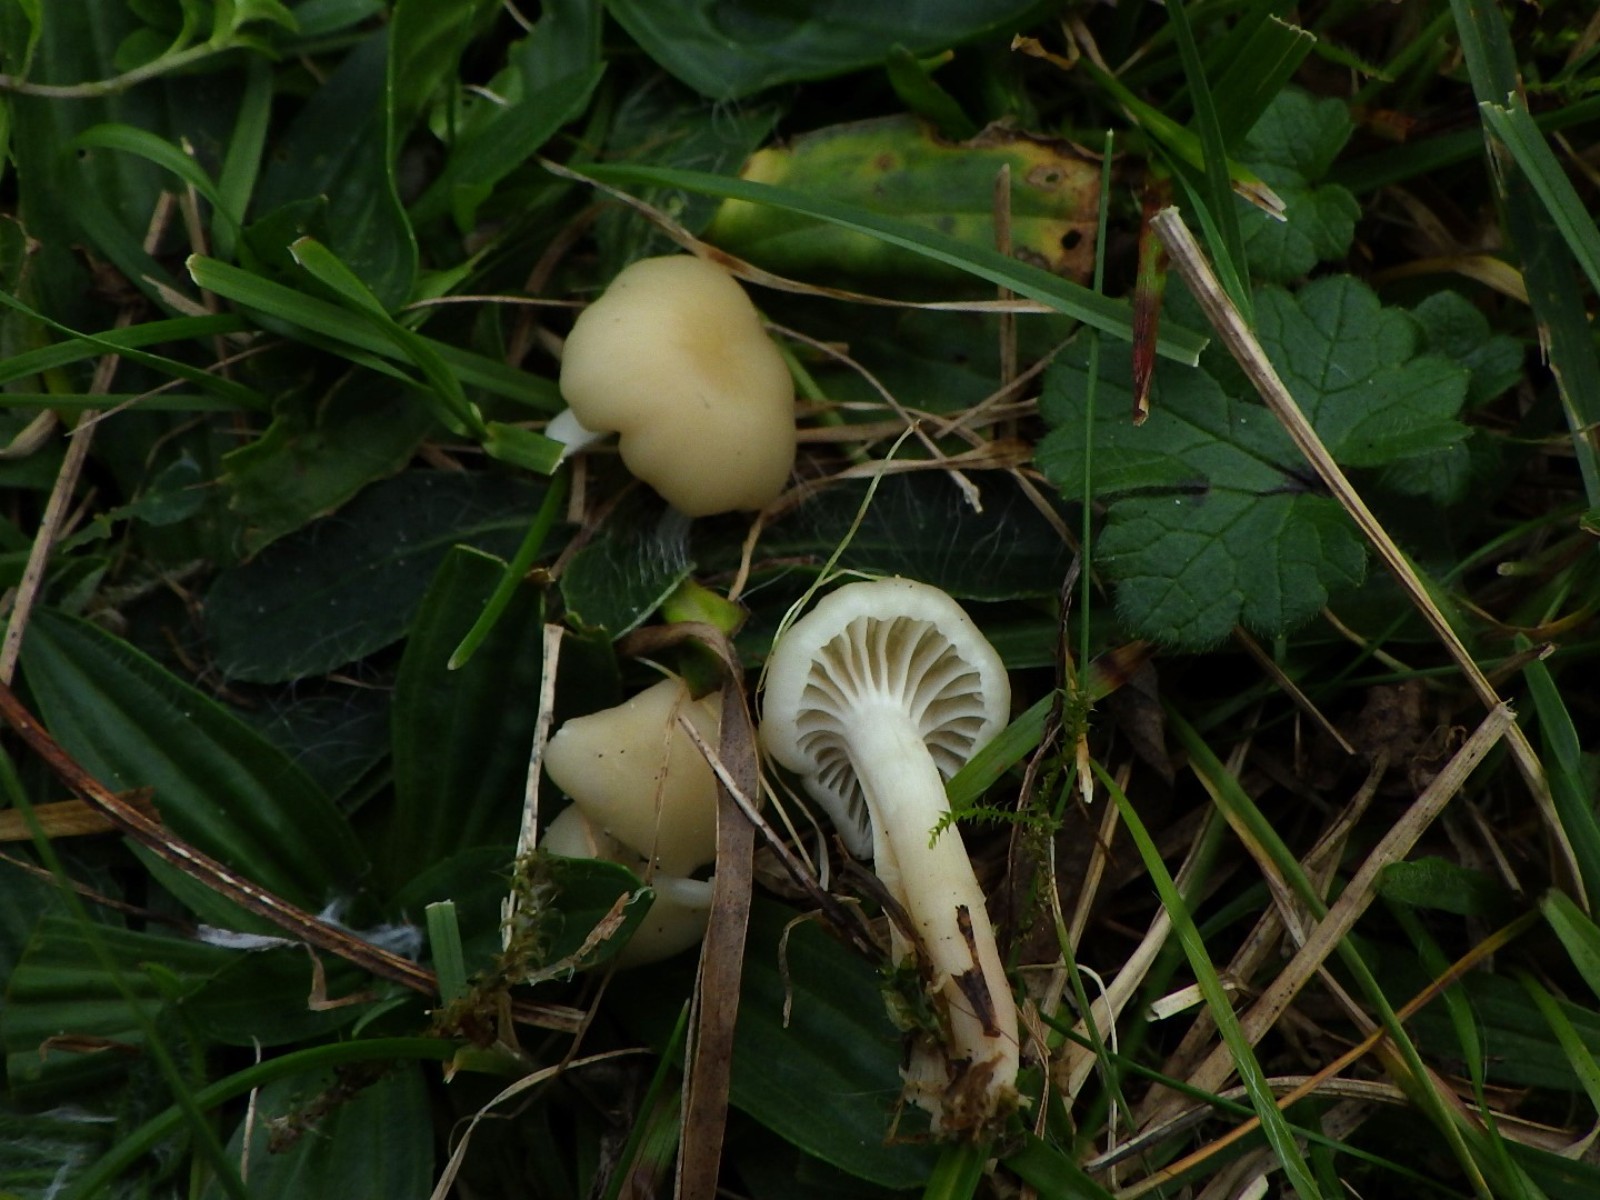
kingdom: Fungi
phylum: Basidiomycota
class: Agaricomycetes
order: Agaricales
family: Hygrophoraceae
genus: Cuphophyllus
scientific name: Cuphophyllus russocoriaceus
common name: ruslæder-vokshat
